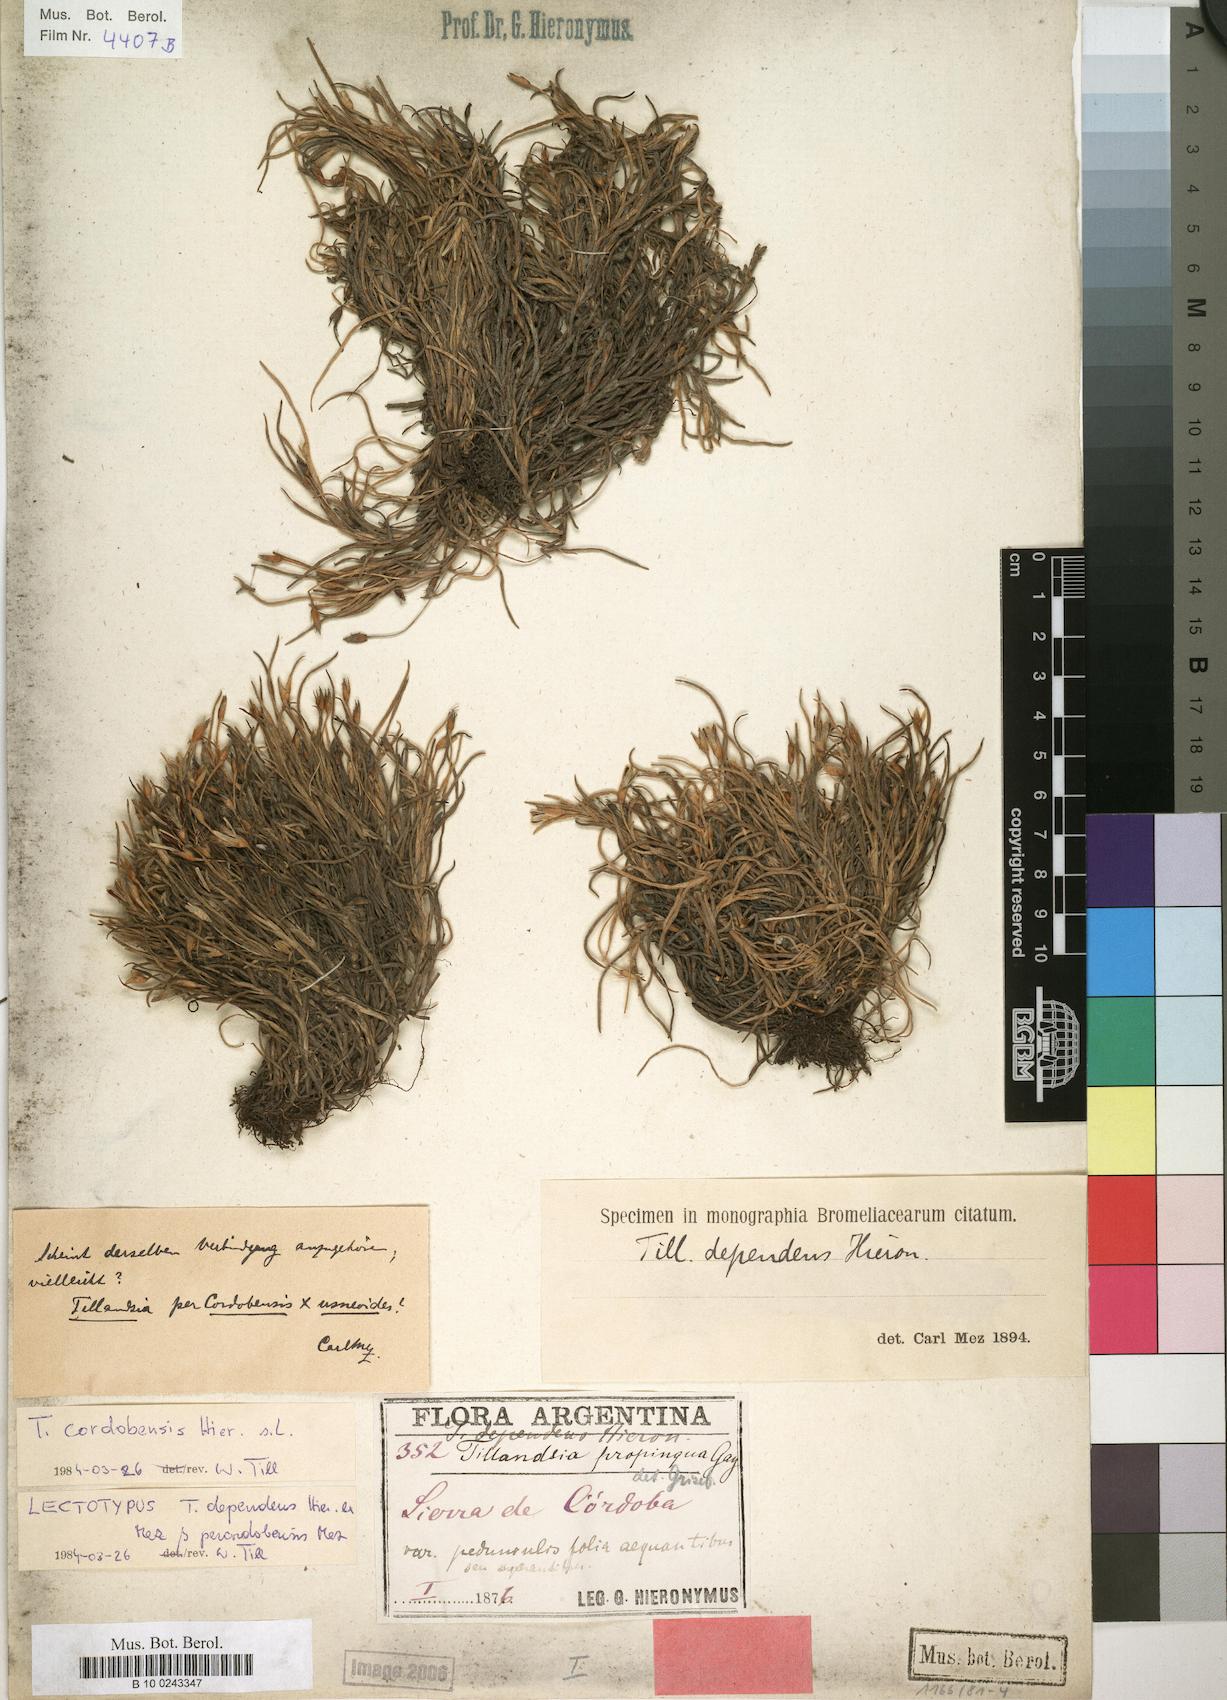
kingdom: Plantae
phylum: Tracheophyta
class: Liliopsida
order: Poales
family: Bromeliaceae
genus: Tillandsia
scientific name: Tillandsia virescens
